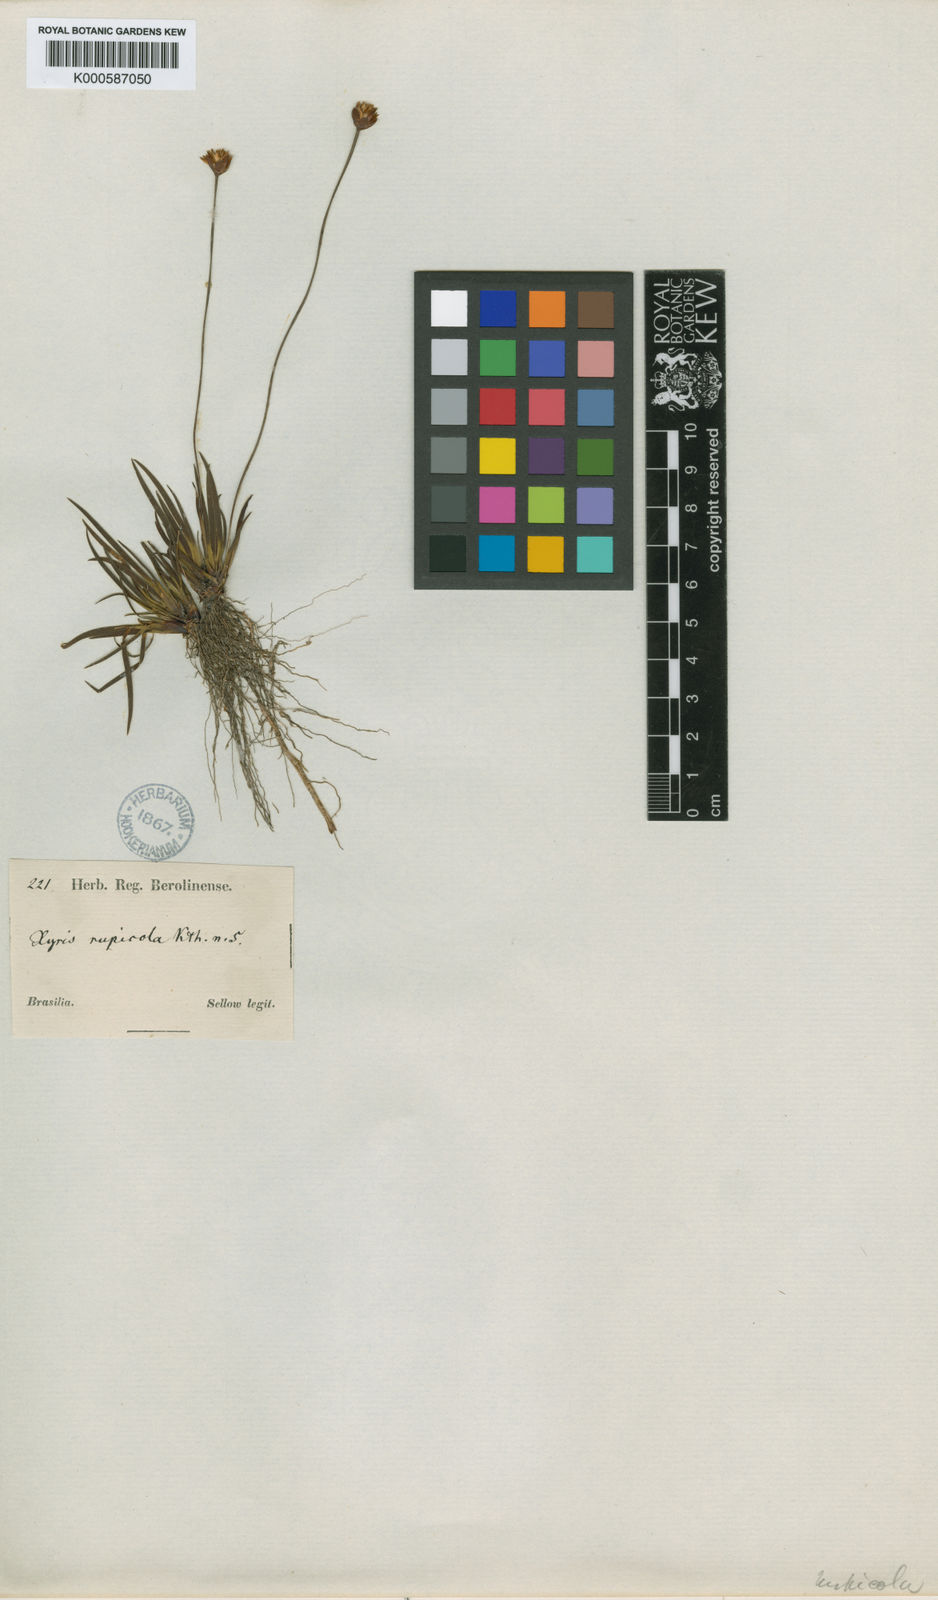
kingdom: Plantae
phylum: Tracheophyta
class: Liliopsida
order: Poales
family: Xyridaceae
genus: Xyris
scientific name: Xyris rupicola
